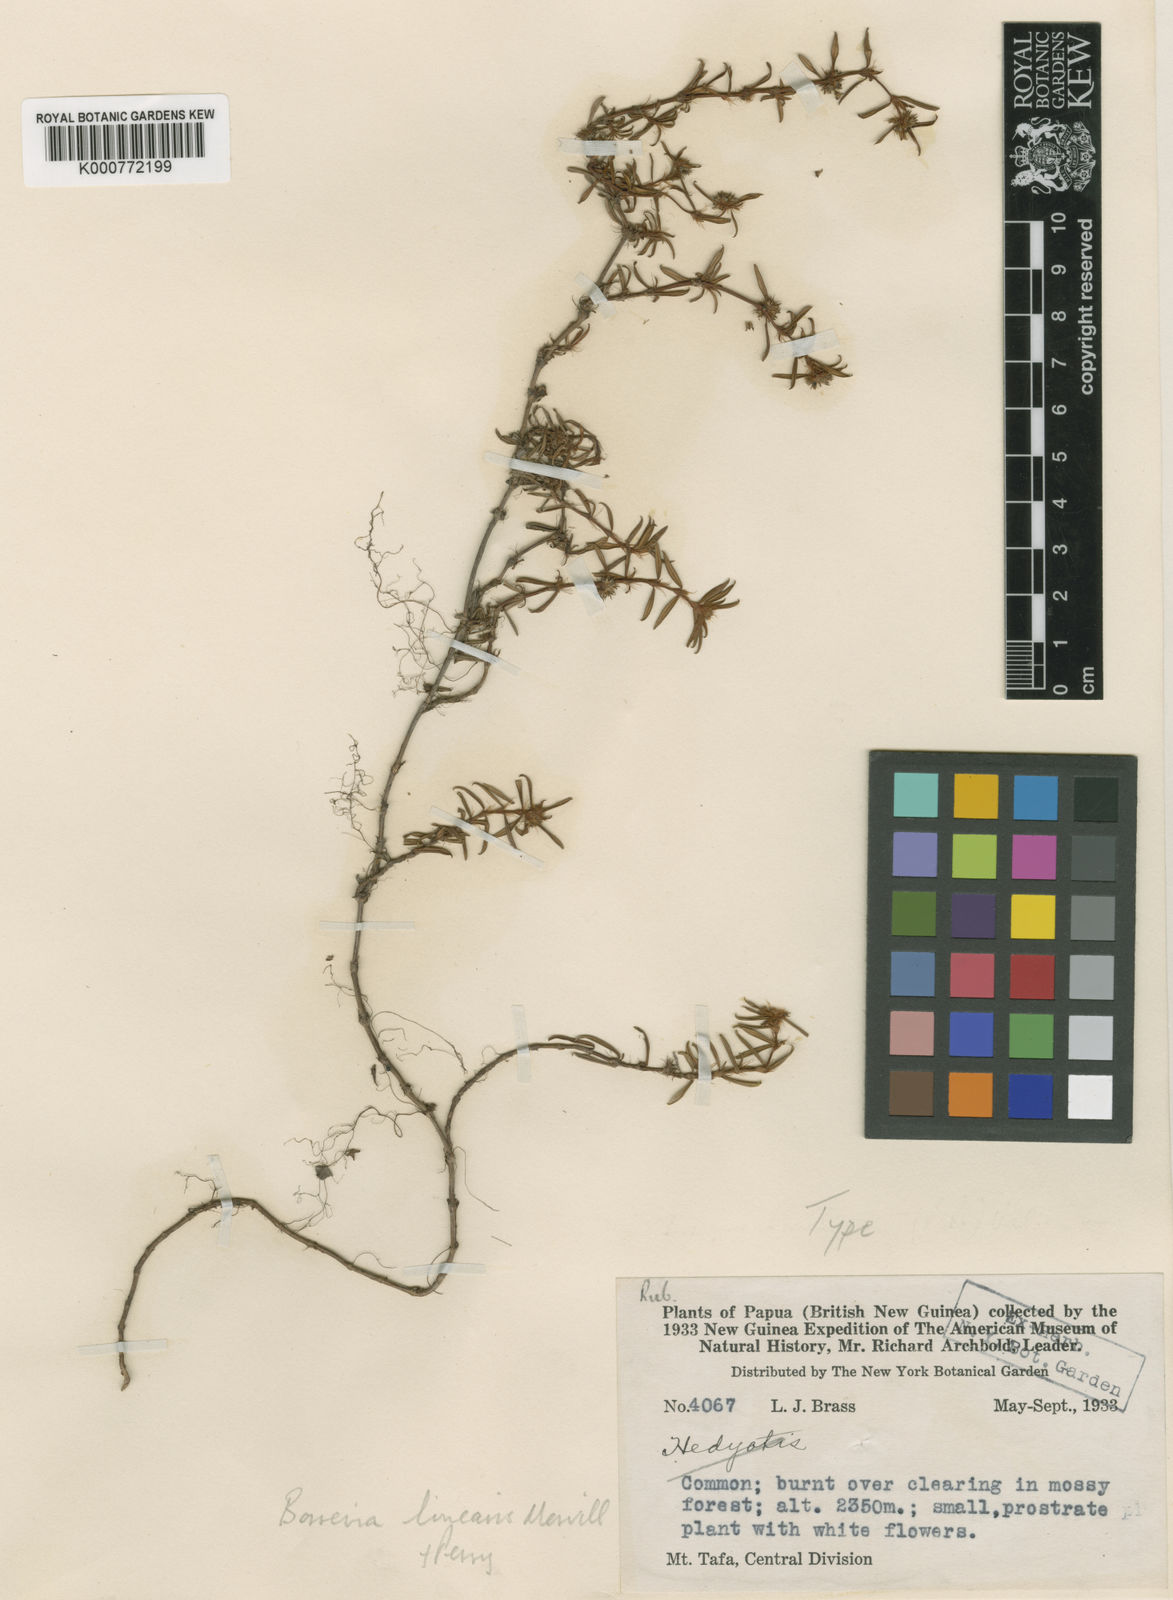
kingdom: Plantae
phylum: Tracheophyta
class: Magnoliopsida
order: Gentianales
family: Rubiaceae
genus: Spermacoce
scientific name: Spermacoce brassii
